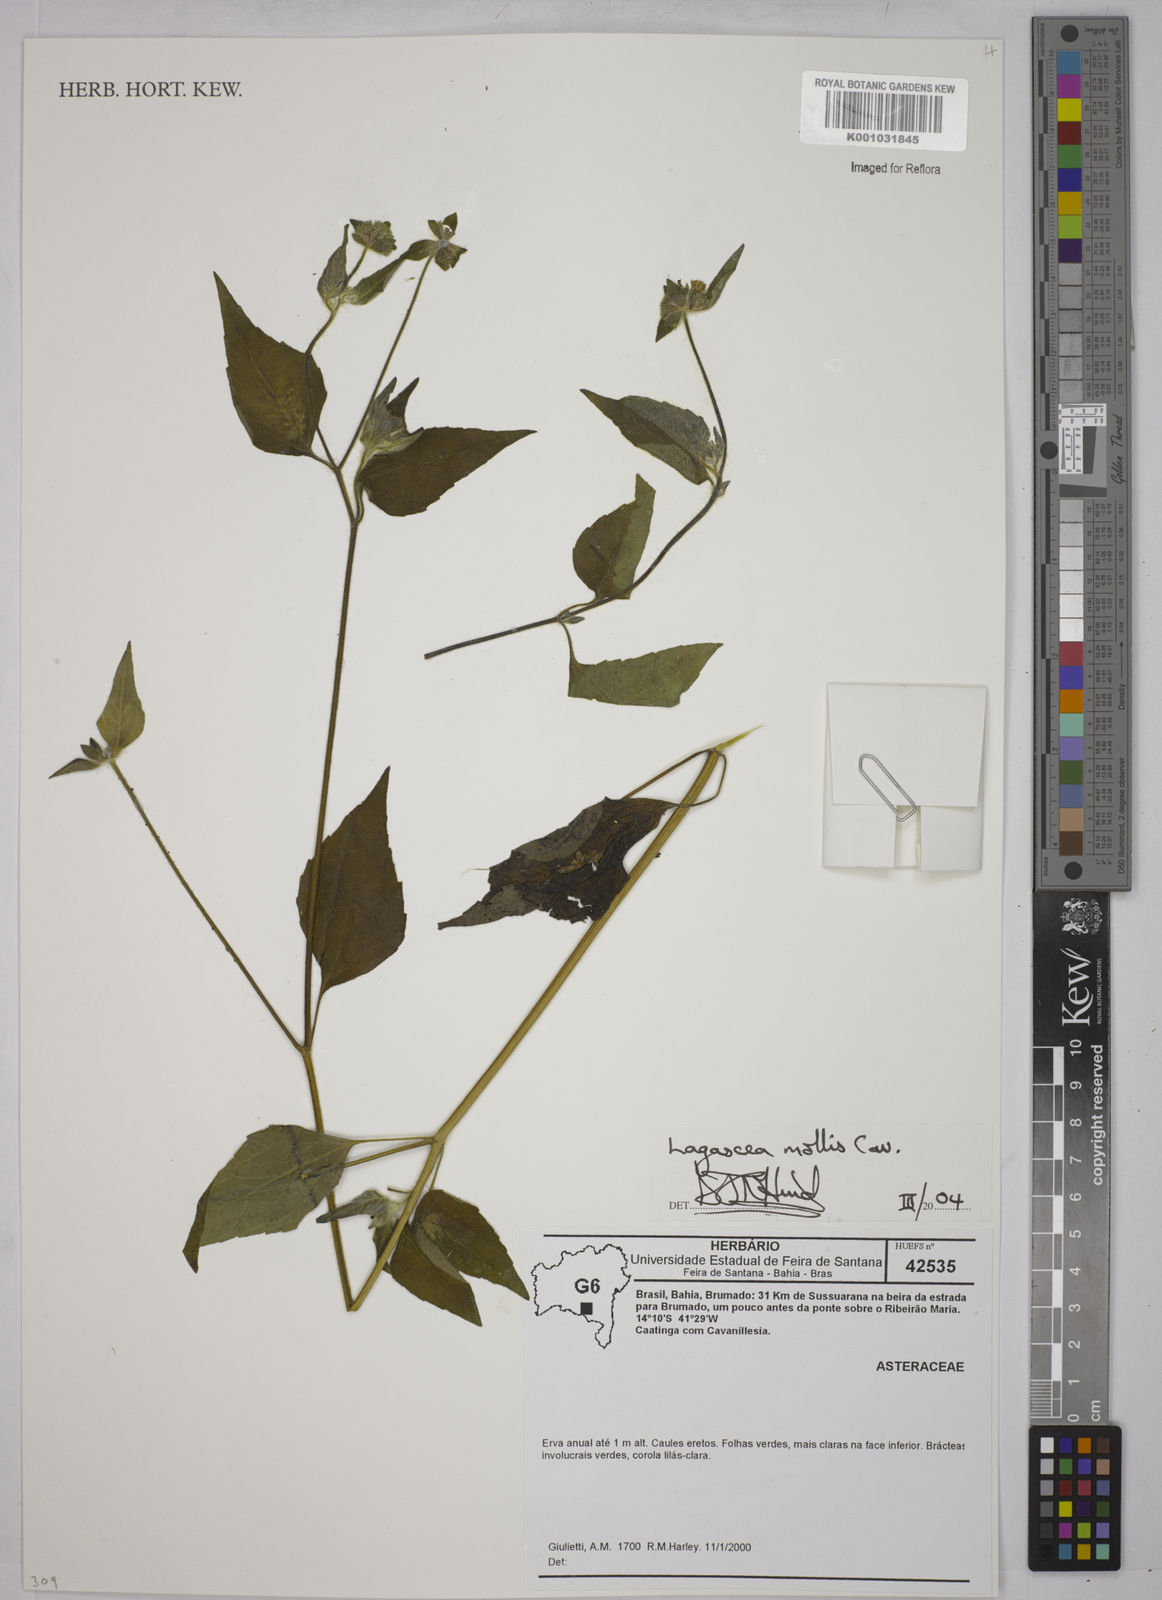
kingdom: Plantae
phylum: Tracheophyta
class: Magnoliopsida
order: Asterales
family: Asteraceae
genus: Lagascea
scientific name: Lagascea mollis
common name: Silkleaf
